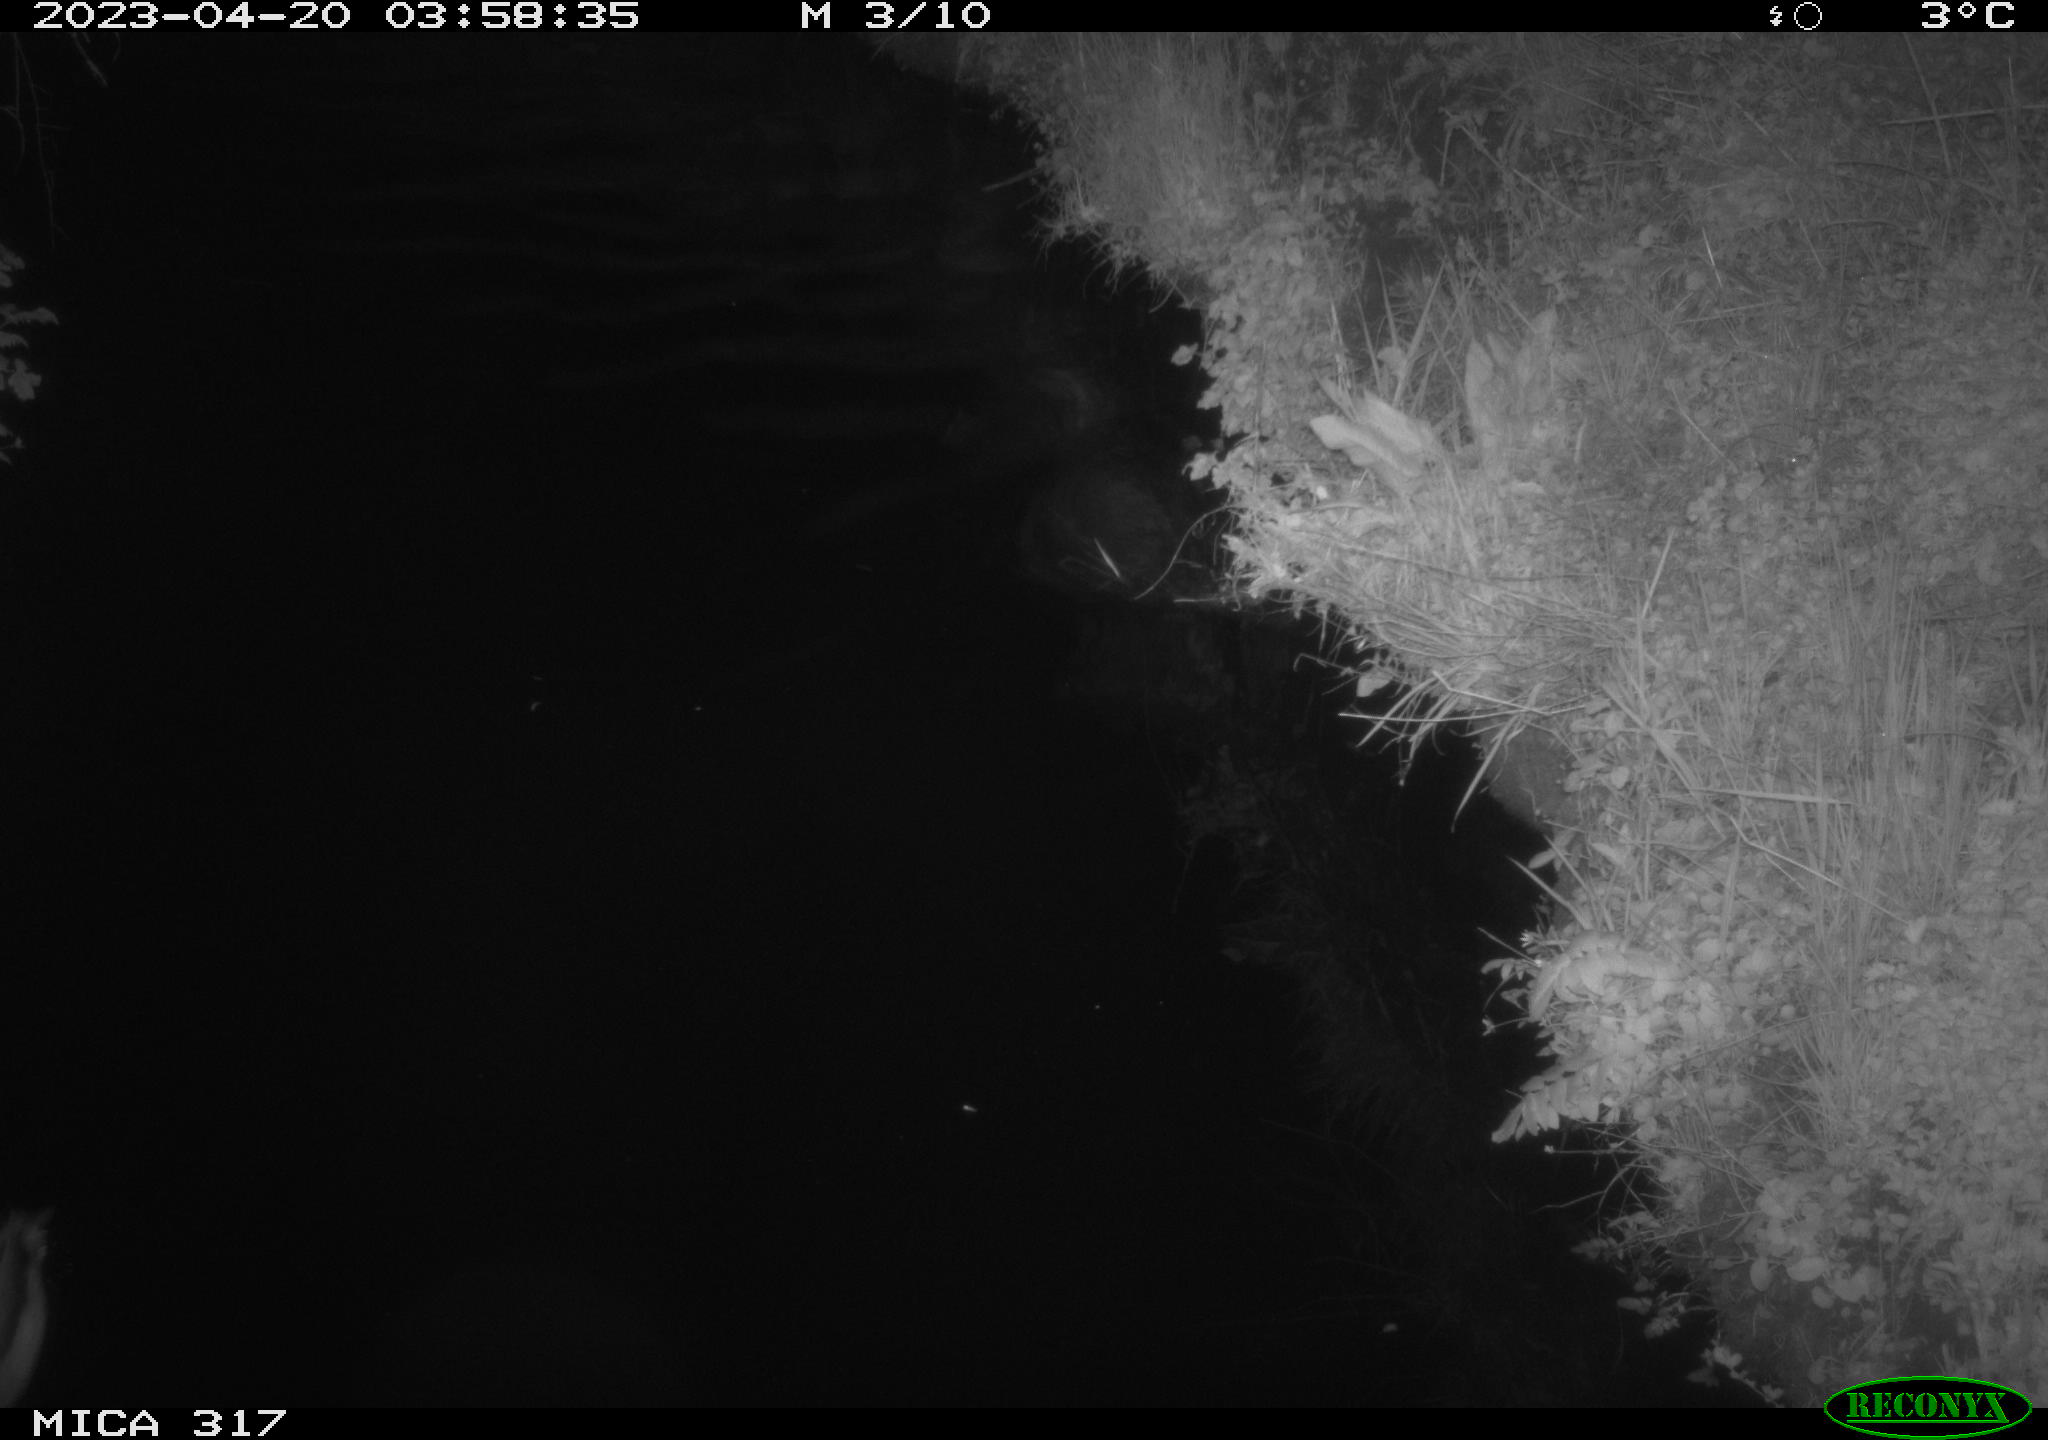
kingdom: Animalia
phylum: Chordata
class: Aves
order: Anseriformes
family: Anatidae
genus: Anas
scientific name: Anas
